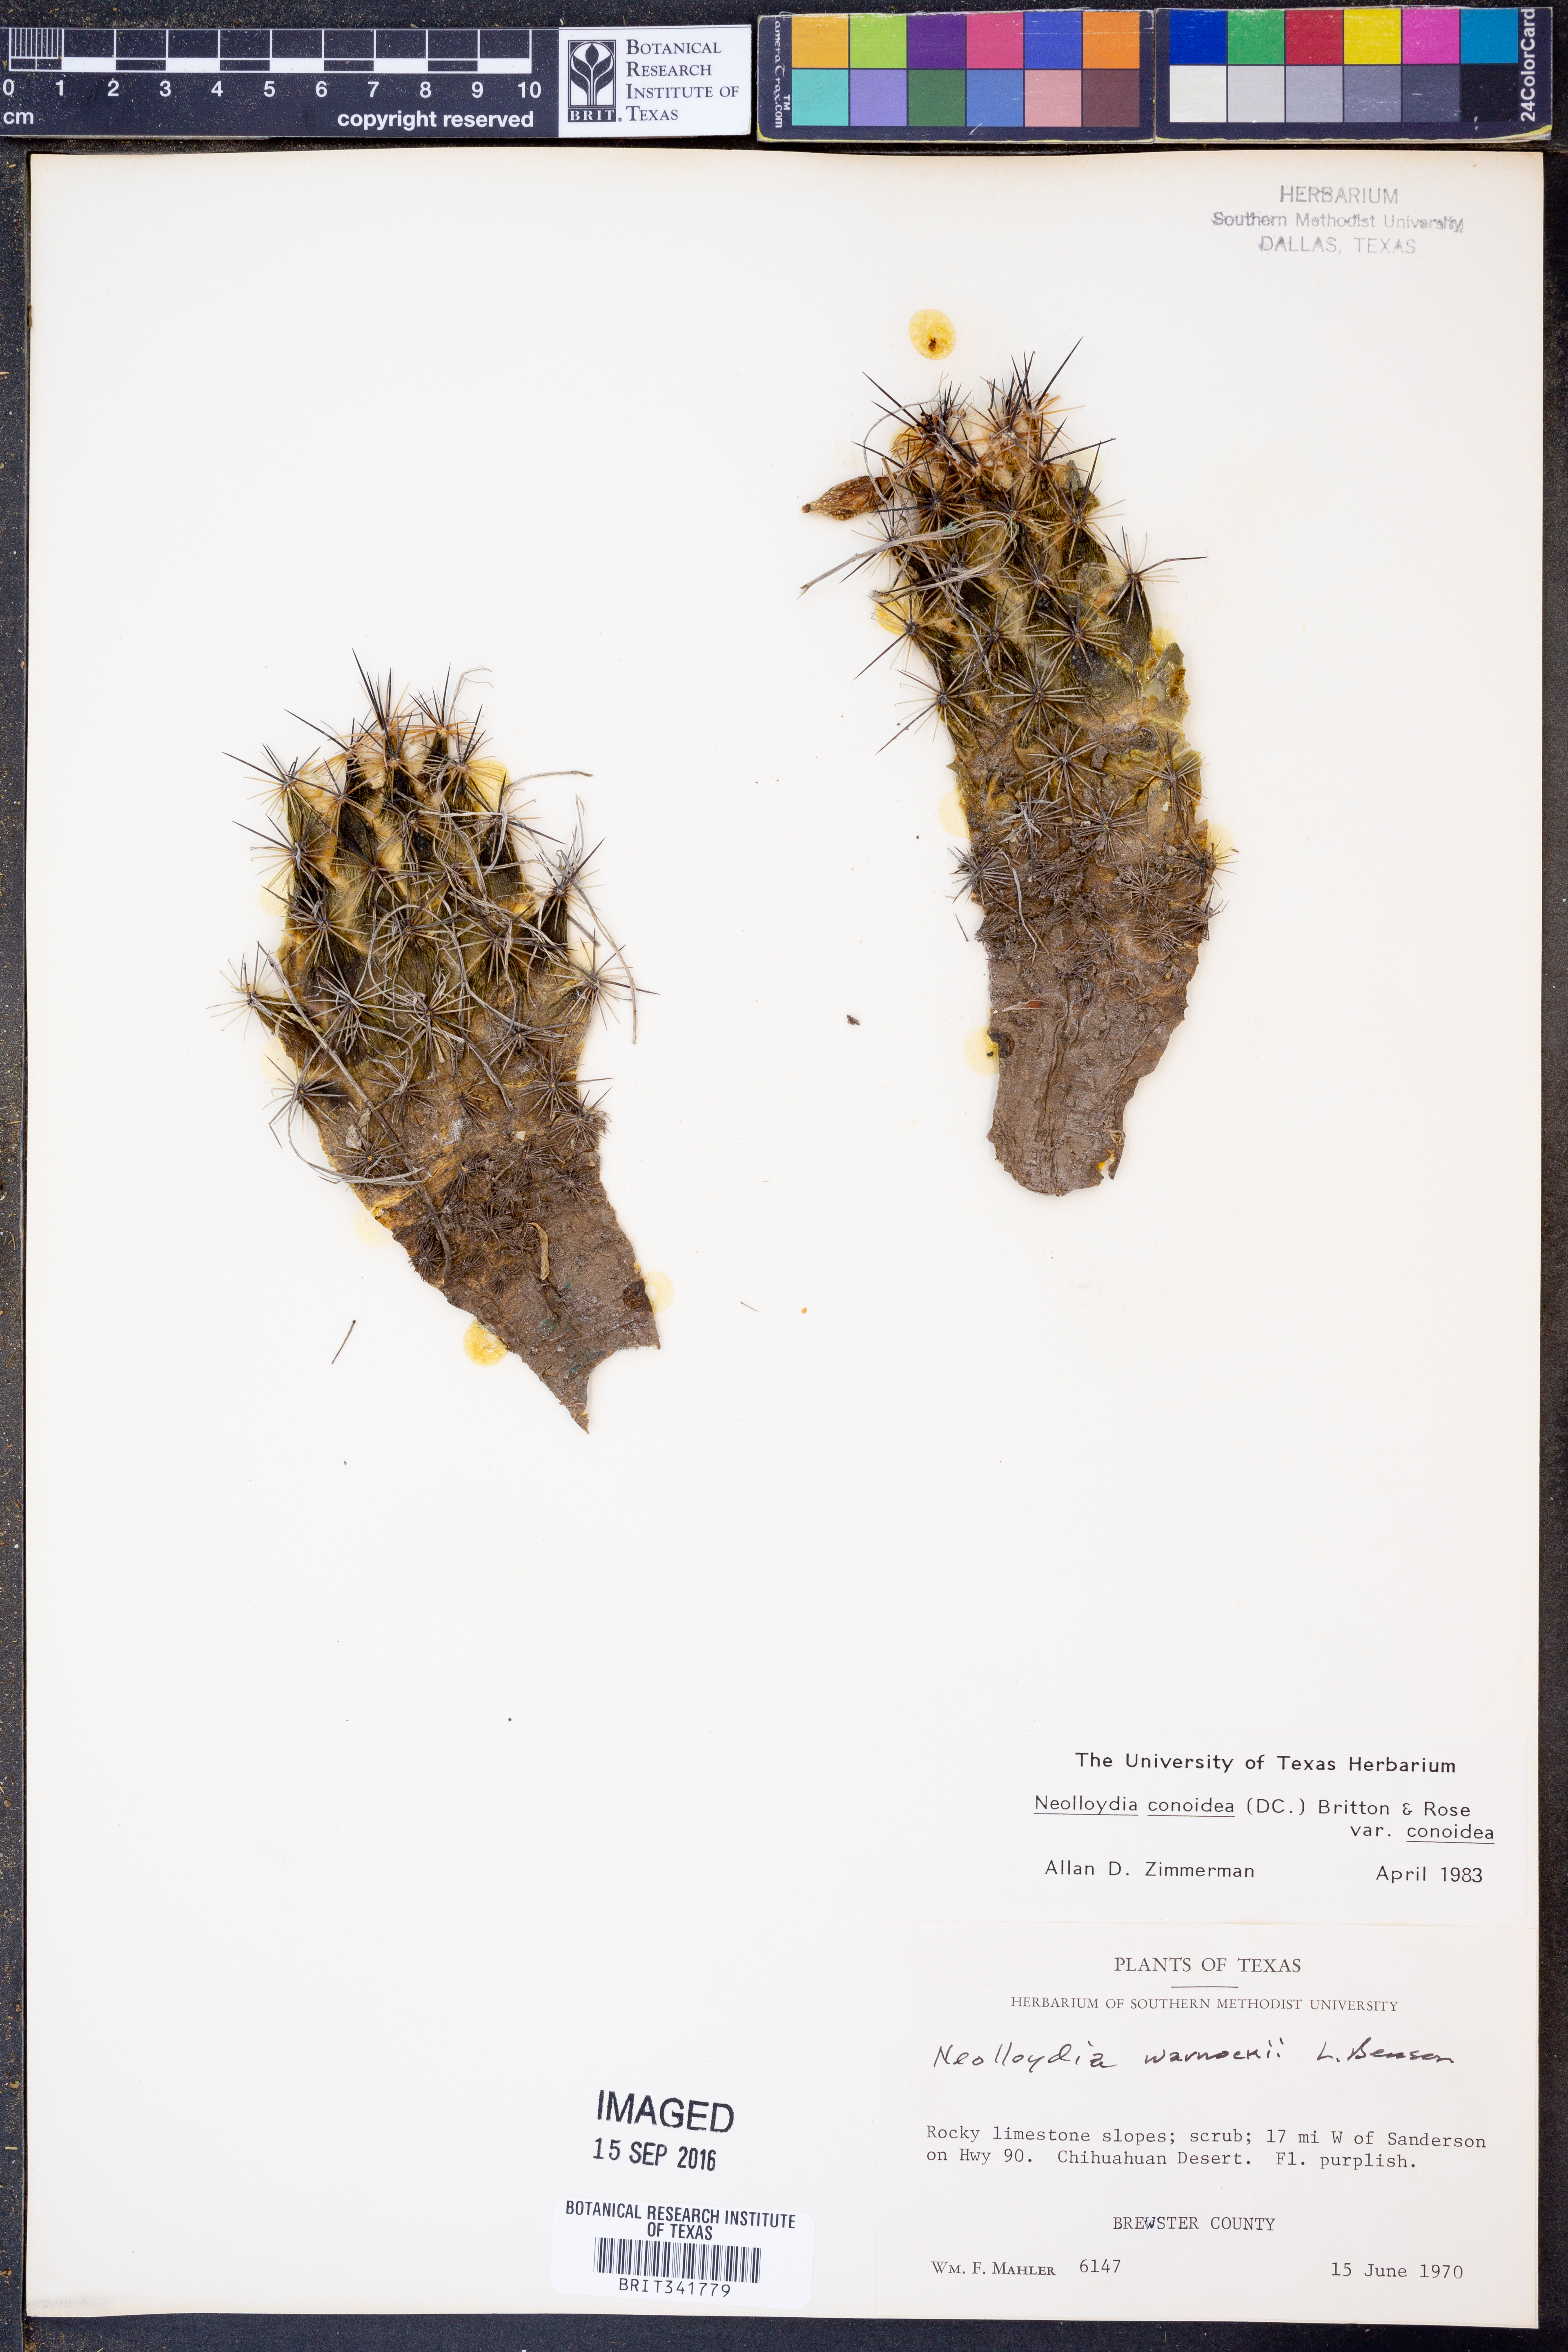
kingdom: Plantae
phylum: Tracheophyta
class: Magnoliopsida
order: Caryophyllales
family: Cactaceae
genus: Cochemiea
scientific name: Cochemiea conoidea
